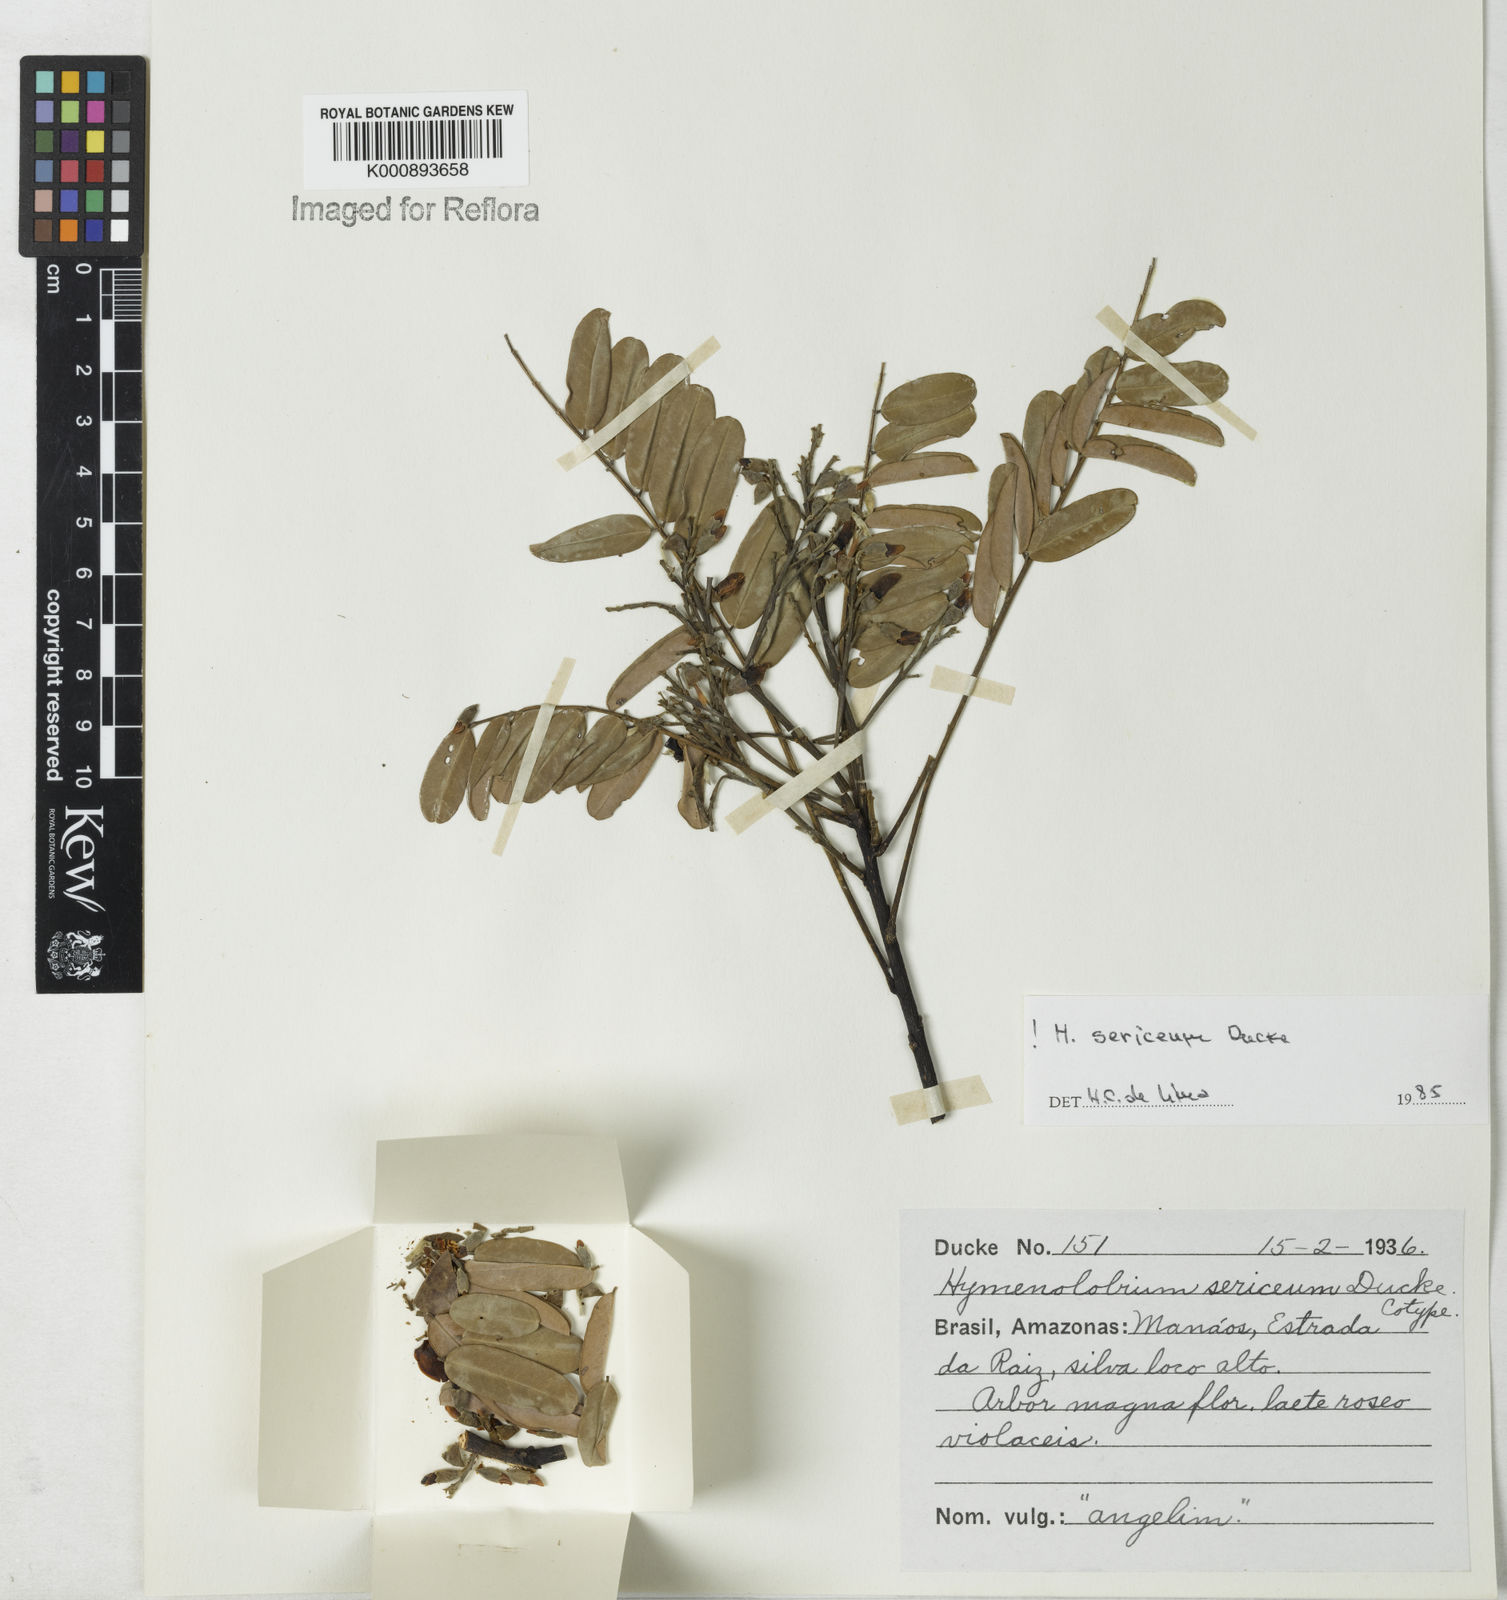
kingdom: Plantae
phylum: Tracheophyta
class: Magnoliopsida
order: Fabales
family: Fabaceae
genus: Hymenolobium
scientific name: Hymenolobium sericeum
